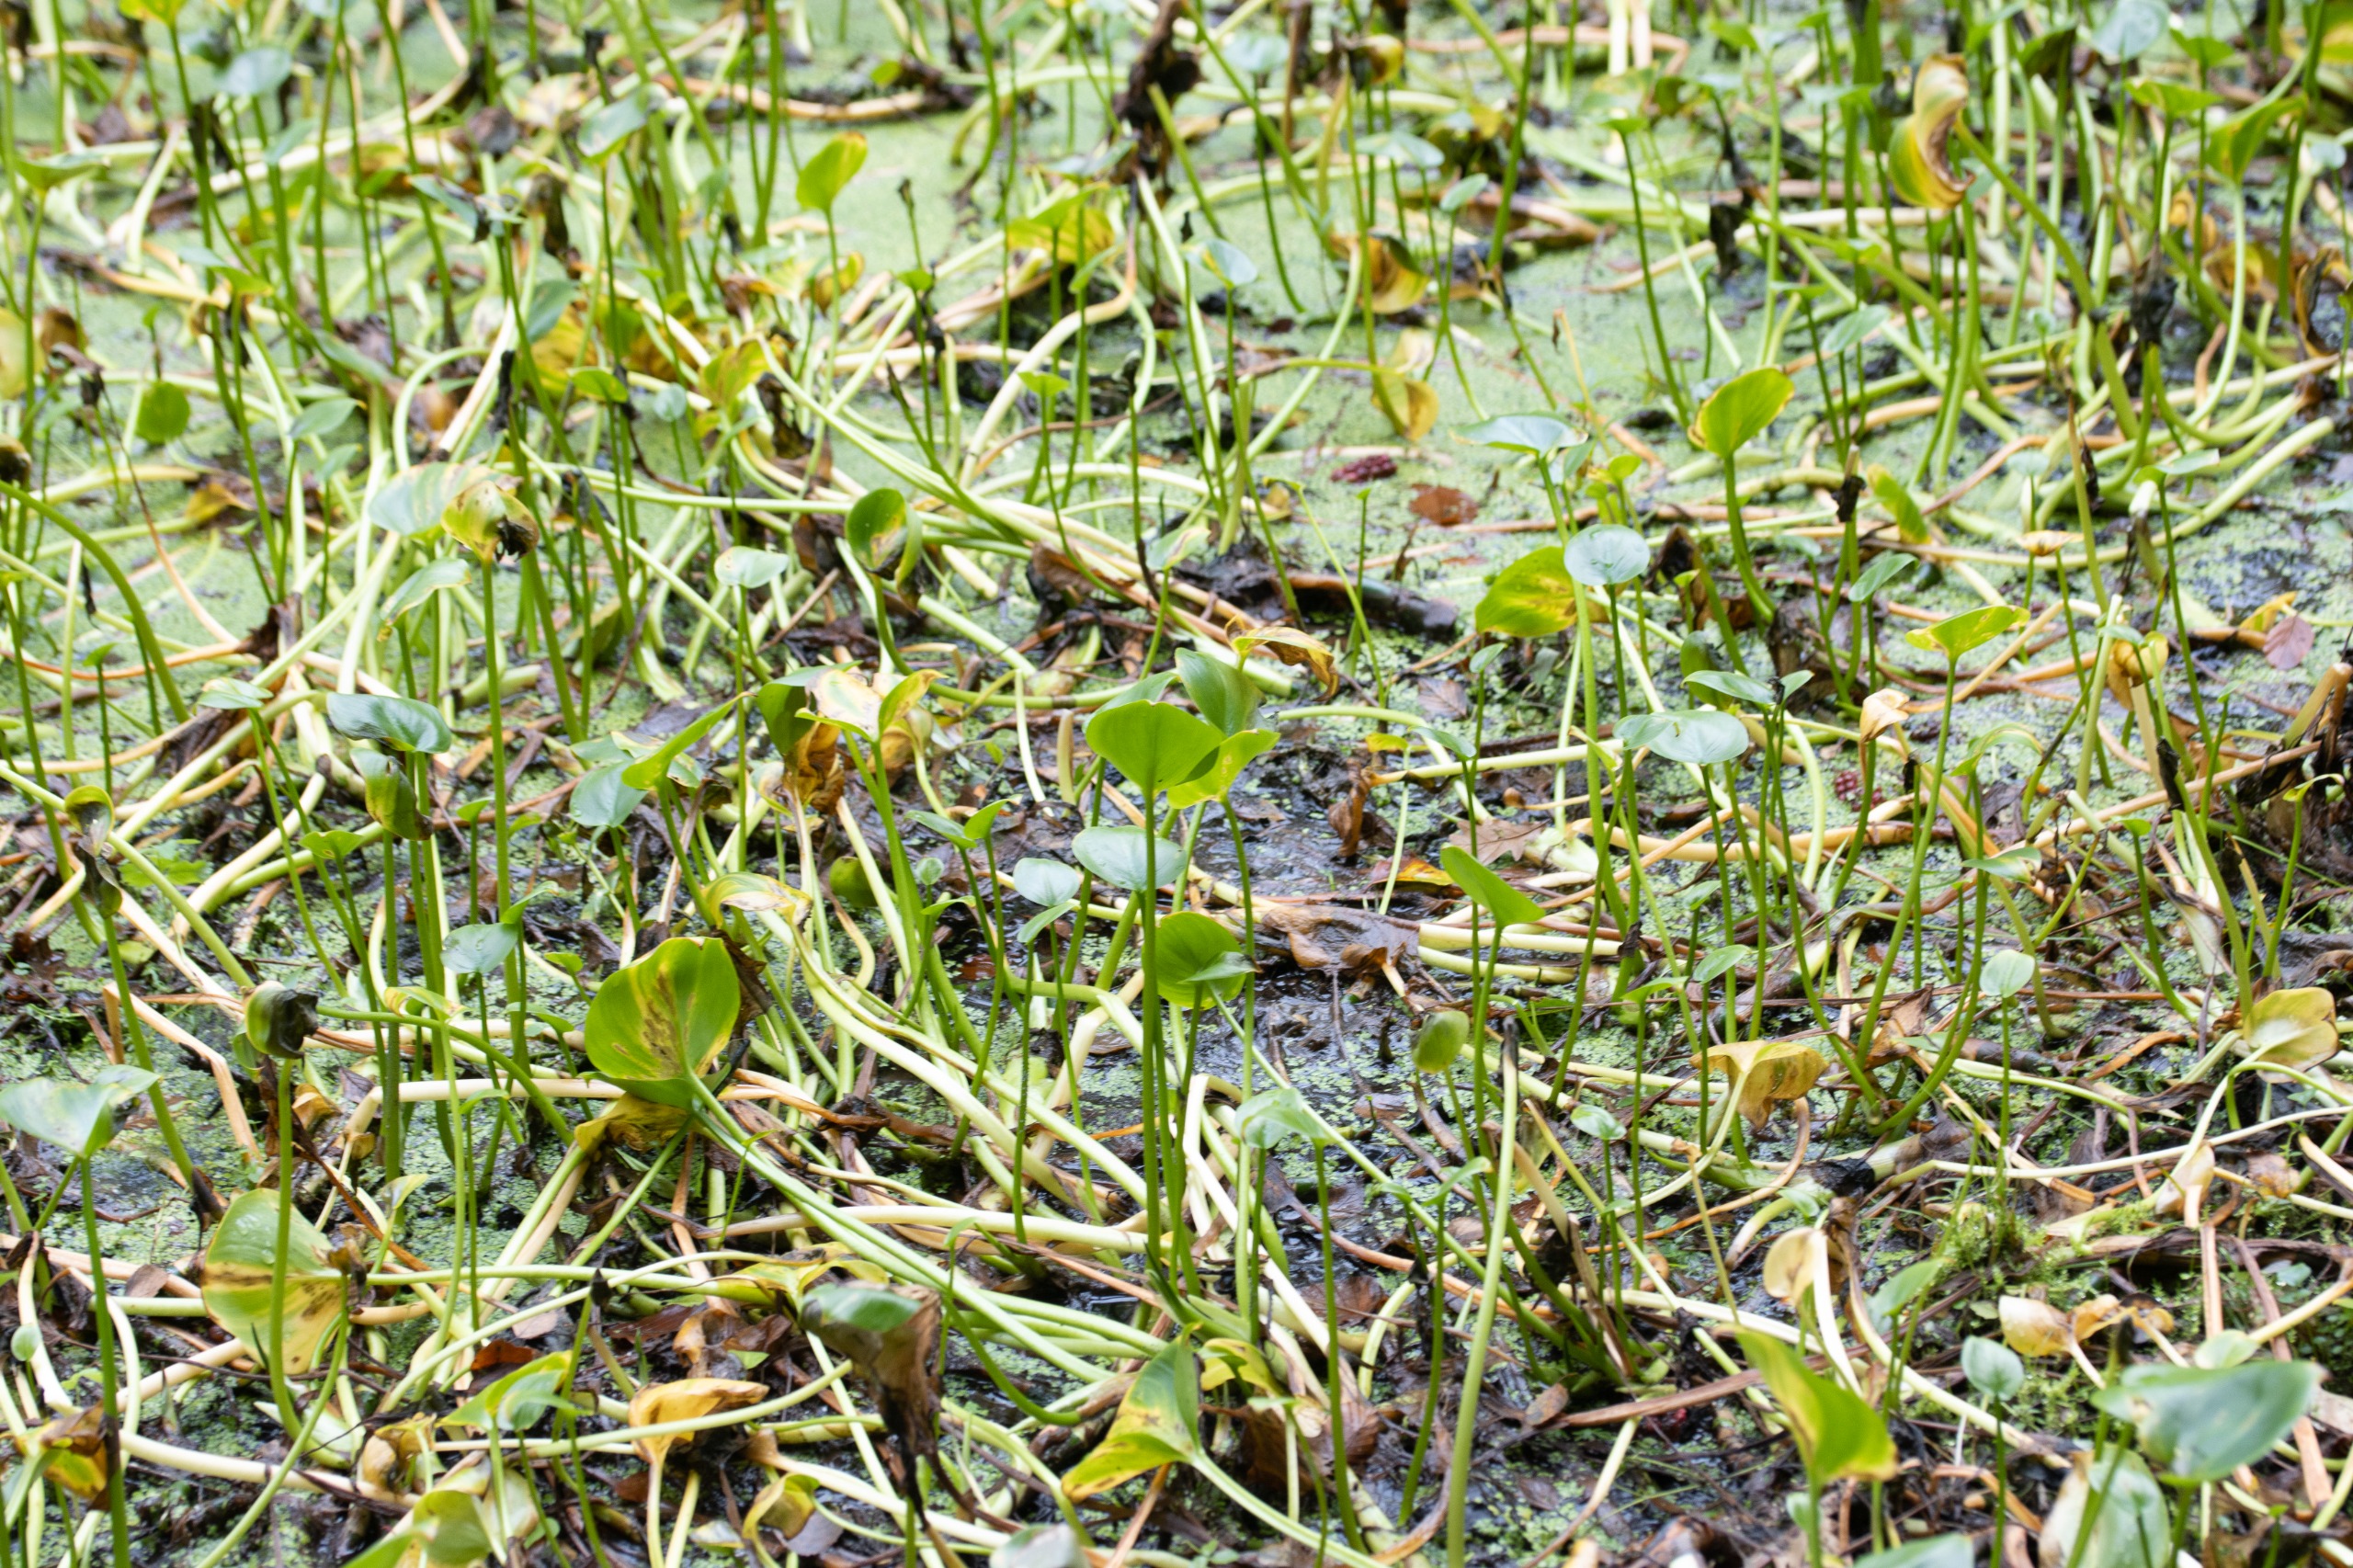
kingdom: Plantae
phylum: Tracheophyta
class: Liliopsida
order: Alismatales
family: Araceae
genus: Calla
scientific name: Calla palustris
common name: Kærmysse
